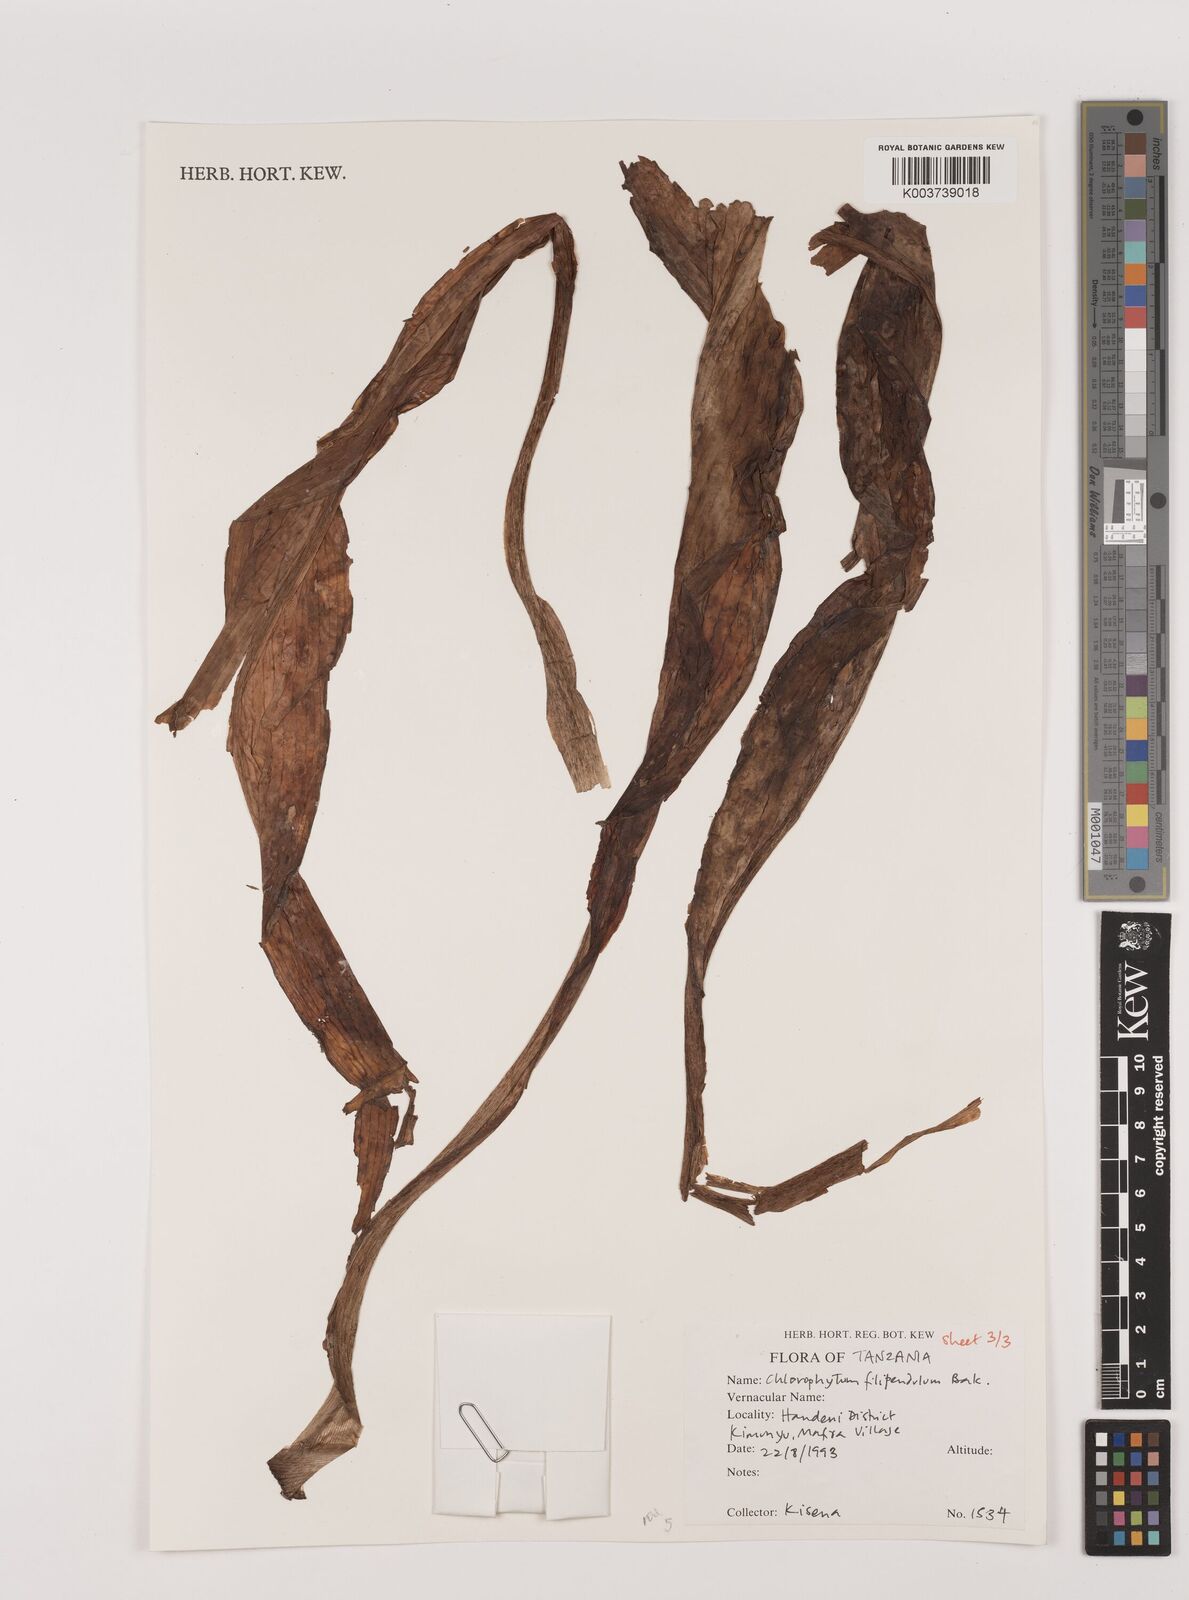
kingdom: Plantae
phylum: Tracheophyta
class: Liliopsida
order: Asparagales
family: Asparagaceae
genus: Chlorophytum
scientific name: Chlorophytum filipendulum
